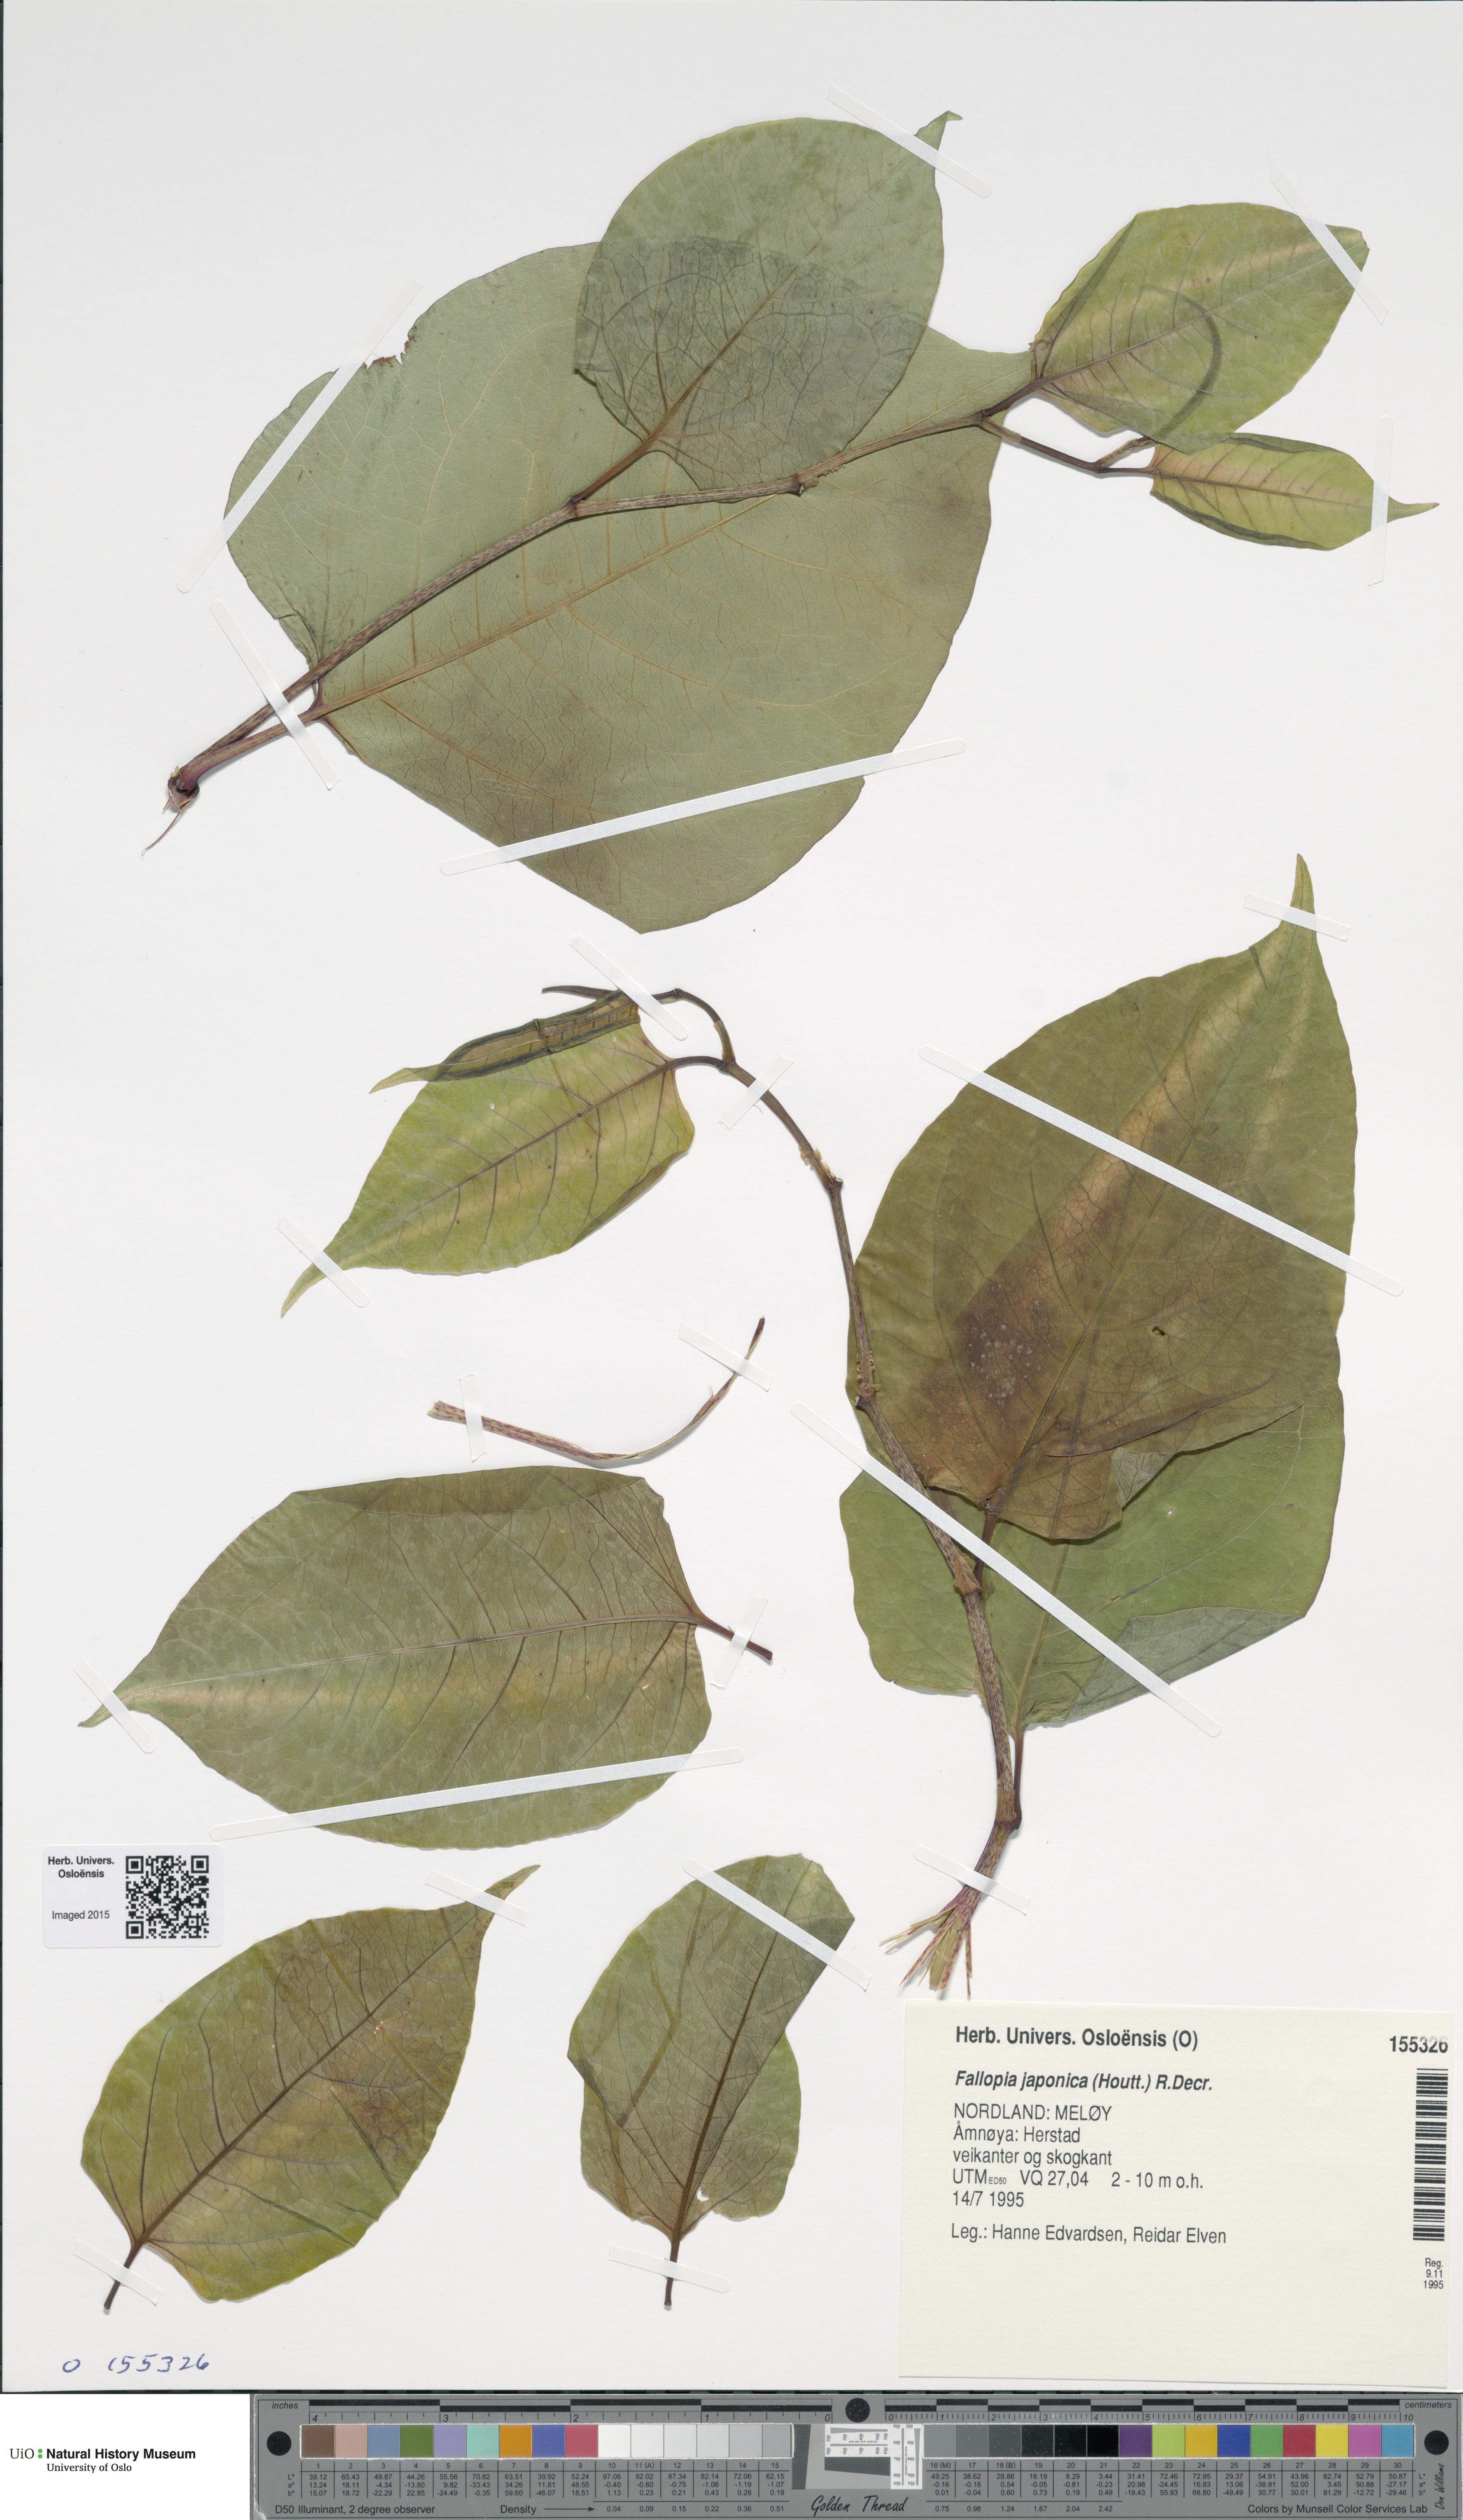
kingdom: Plantae
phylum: Tracheophyta
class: Magnoliopsida
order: Caryophyllales
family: Polygonaceae
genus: Reynoutria
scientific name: Reynoutria japonica
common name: Japanese knotweed
